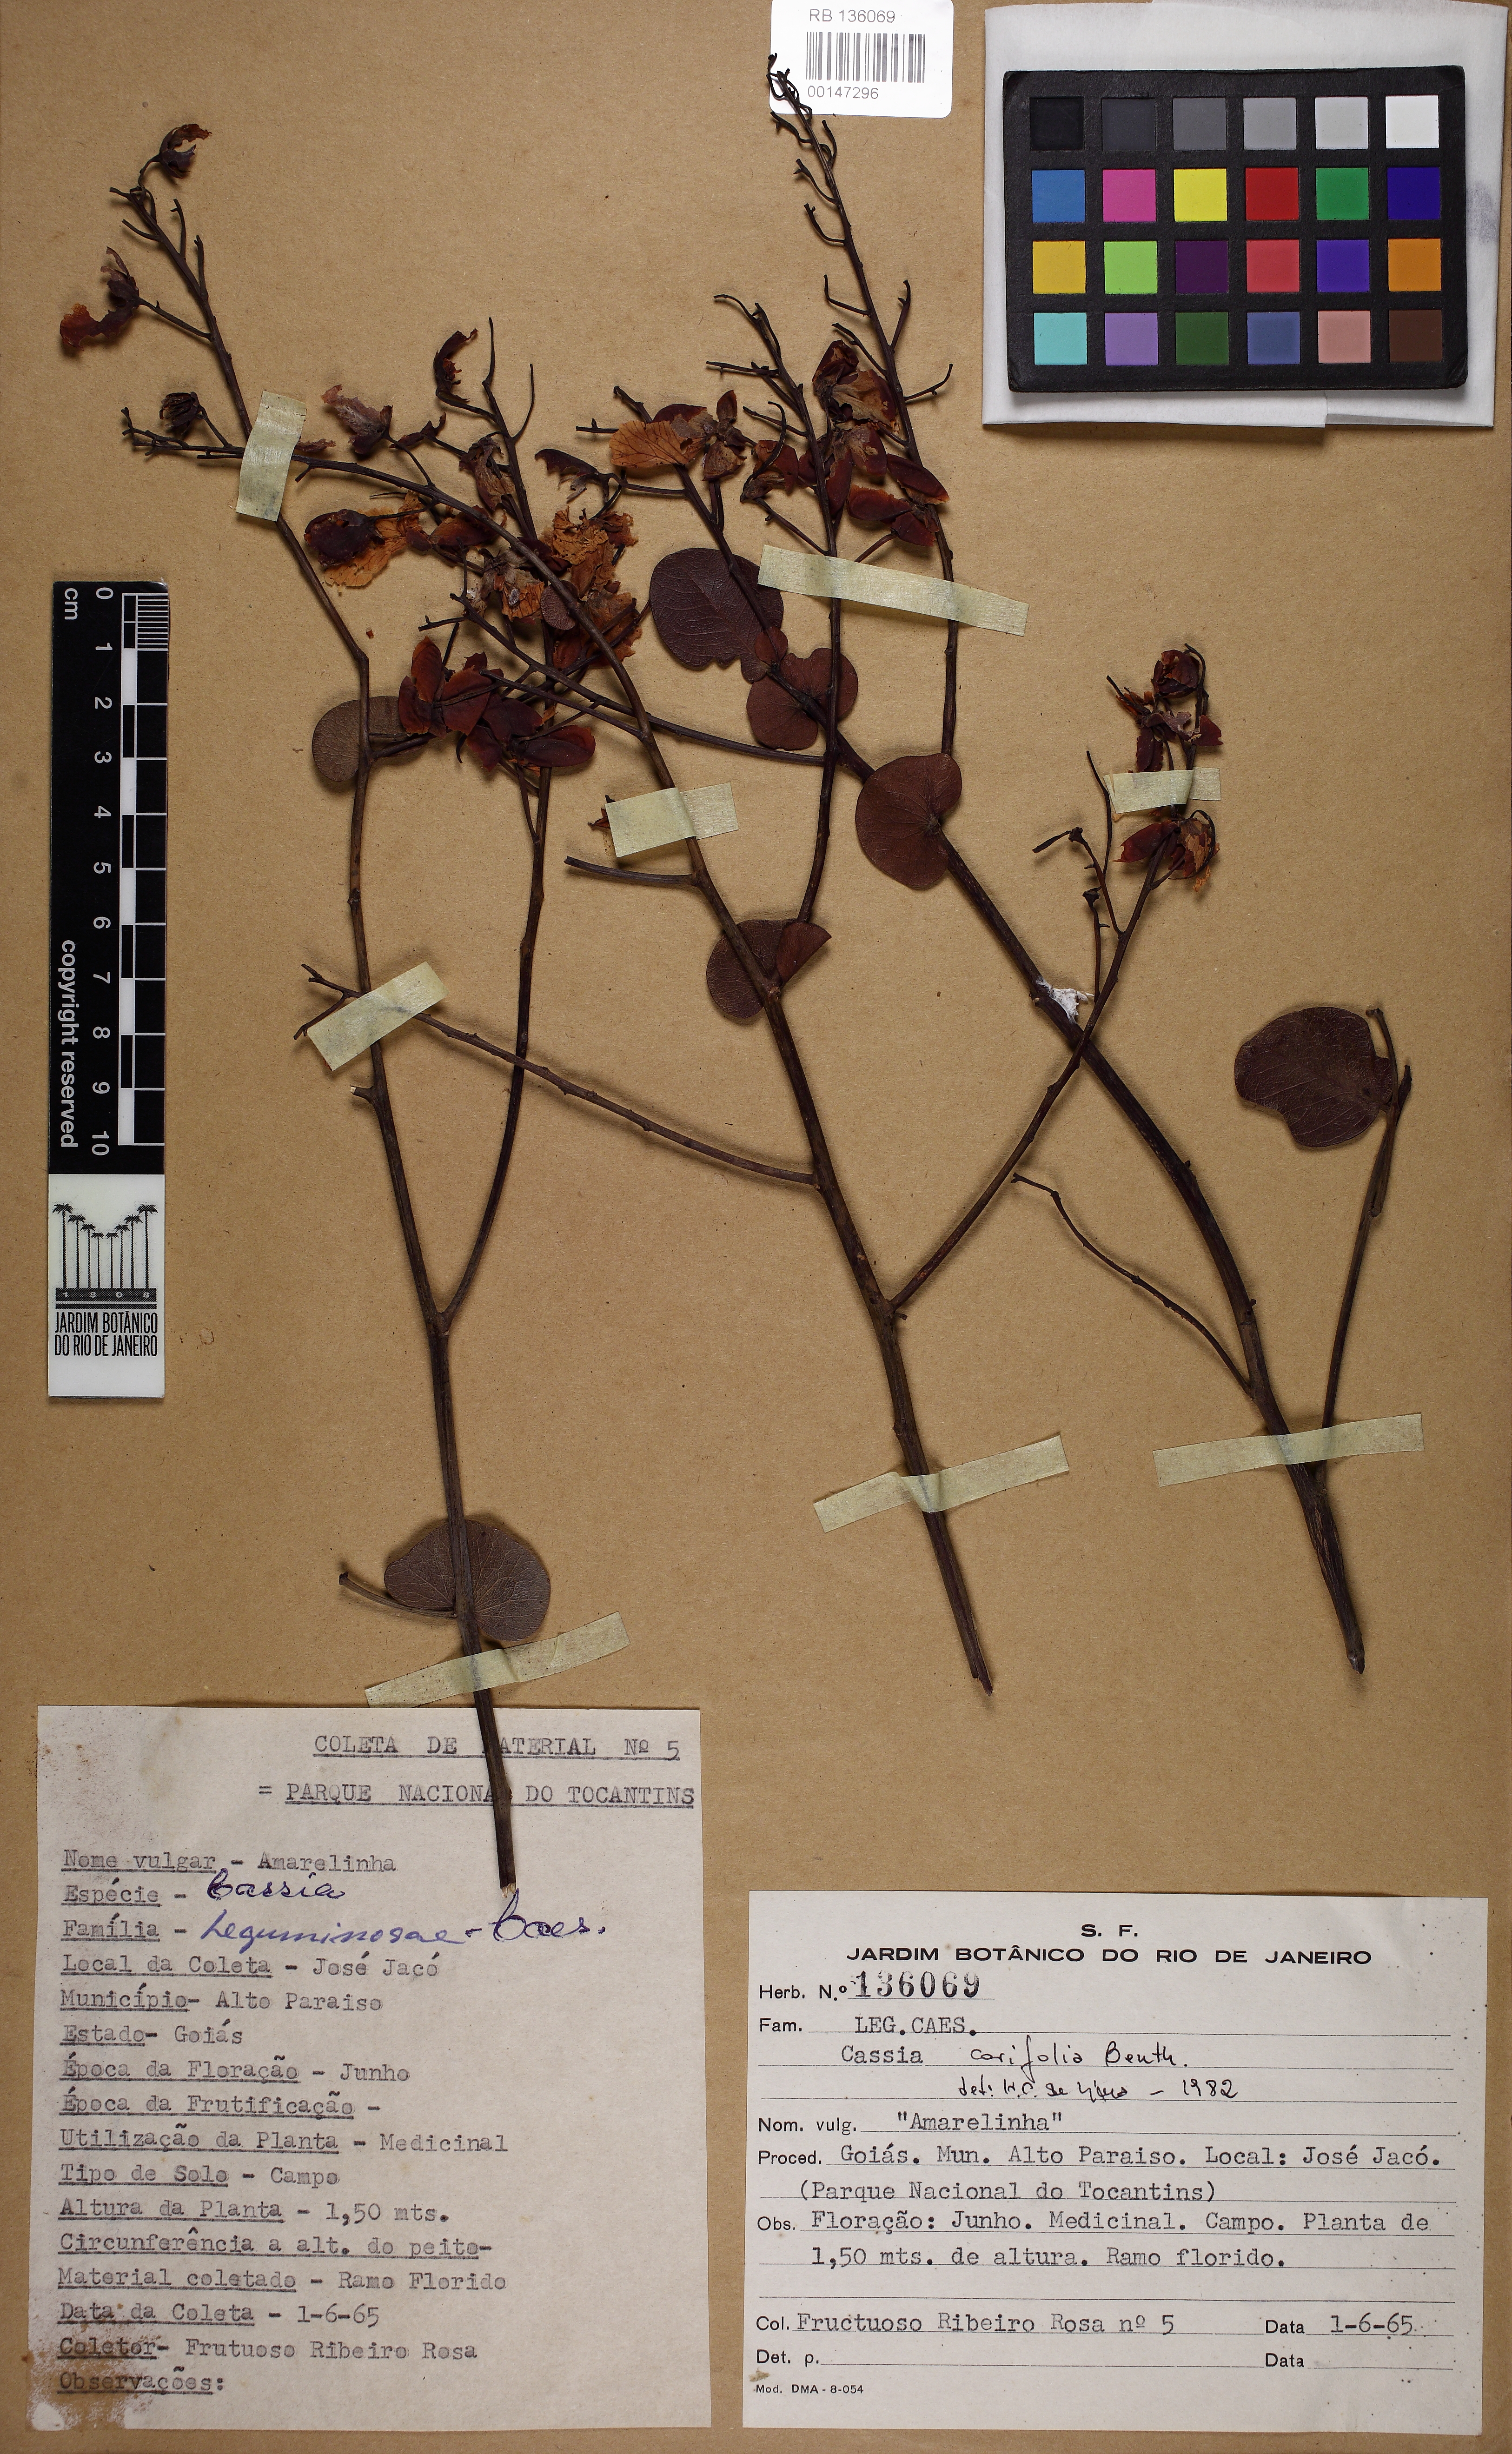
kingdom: Plantae
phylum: Tracheophyta
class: Magnoliopsida
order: Fabales
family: Fabaceae
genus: Senna
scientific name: Senna corifolia
